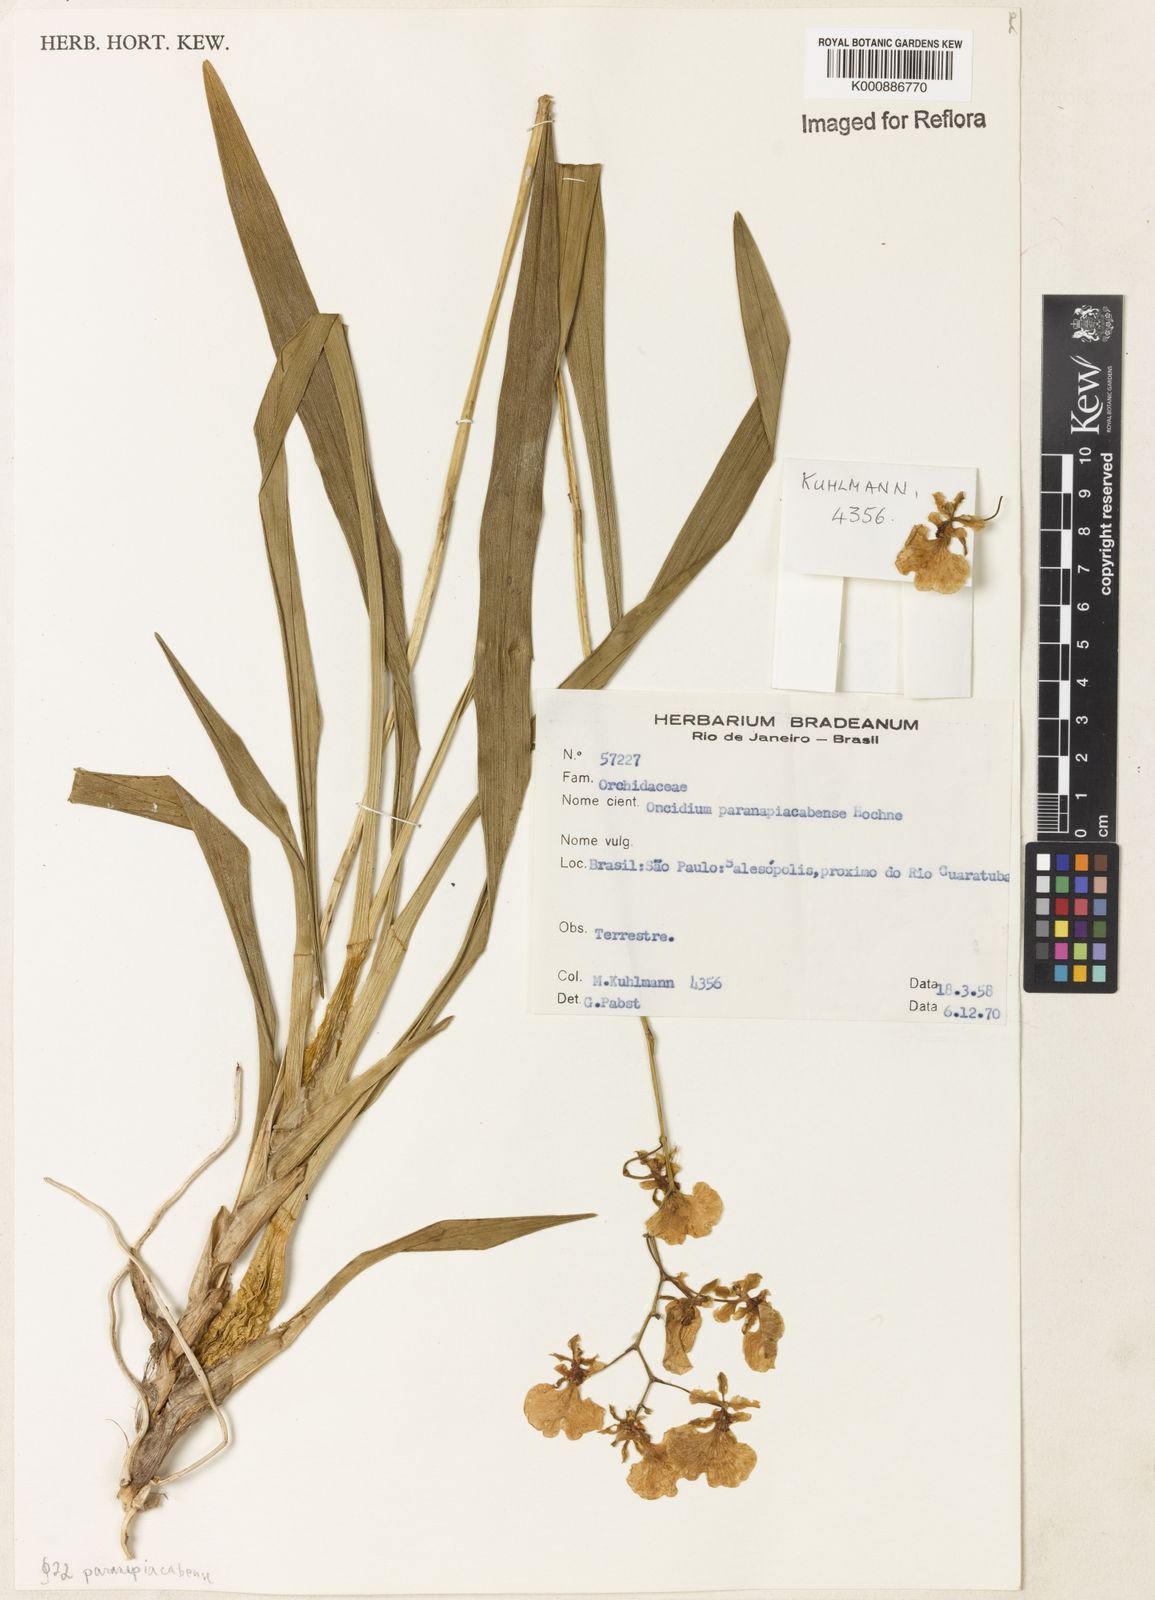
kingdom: Plantae
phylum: Tracheophyta
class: Liliopsida
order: Asparagales
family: Orchidaceae
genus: Gomesa
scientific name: Gomesa majevskyae
